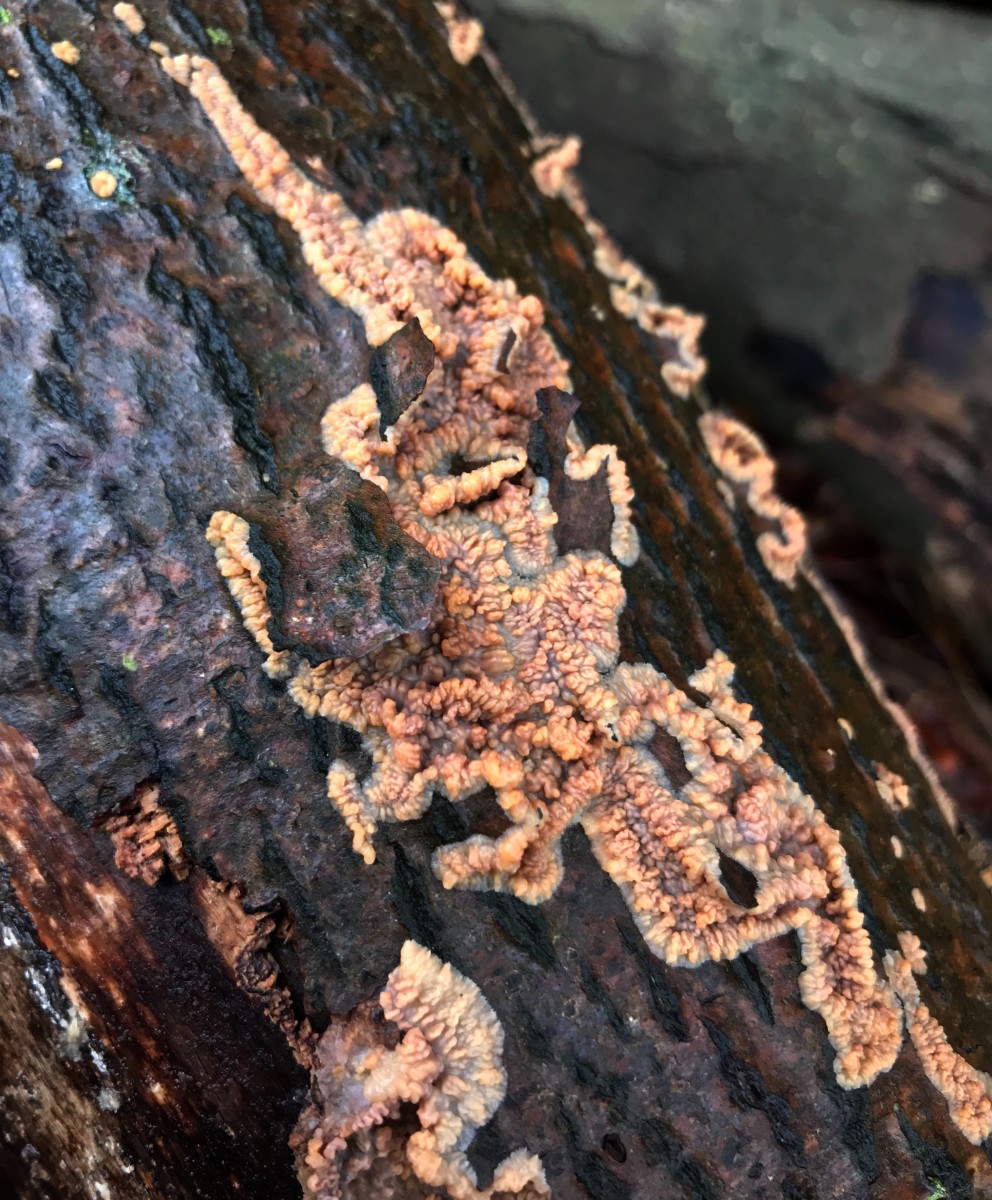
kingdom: Fungi
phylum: Basidiomycota
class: Agaricomycetes
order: Polyporales
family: Meruliaceae
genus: Phlebia
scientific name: Phlebia radiata
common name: stråle-åresvamp
